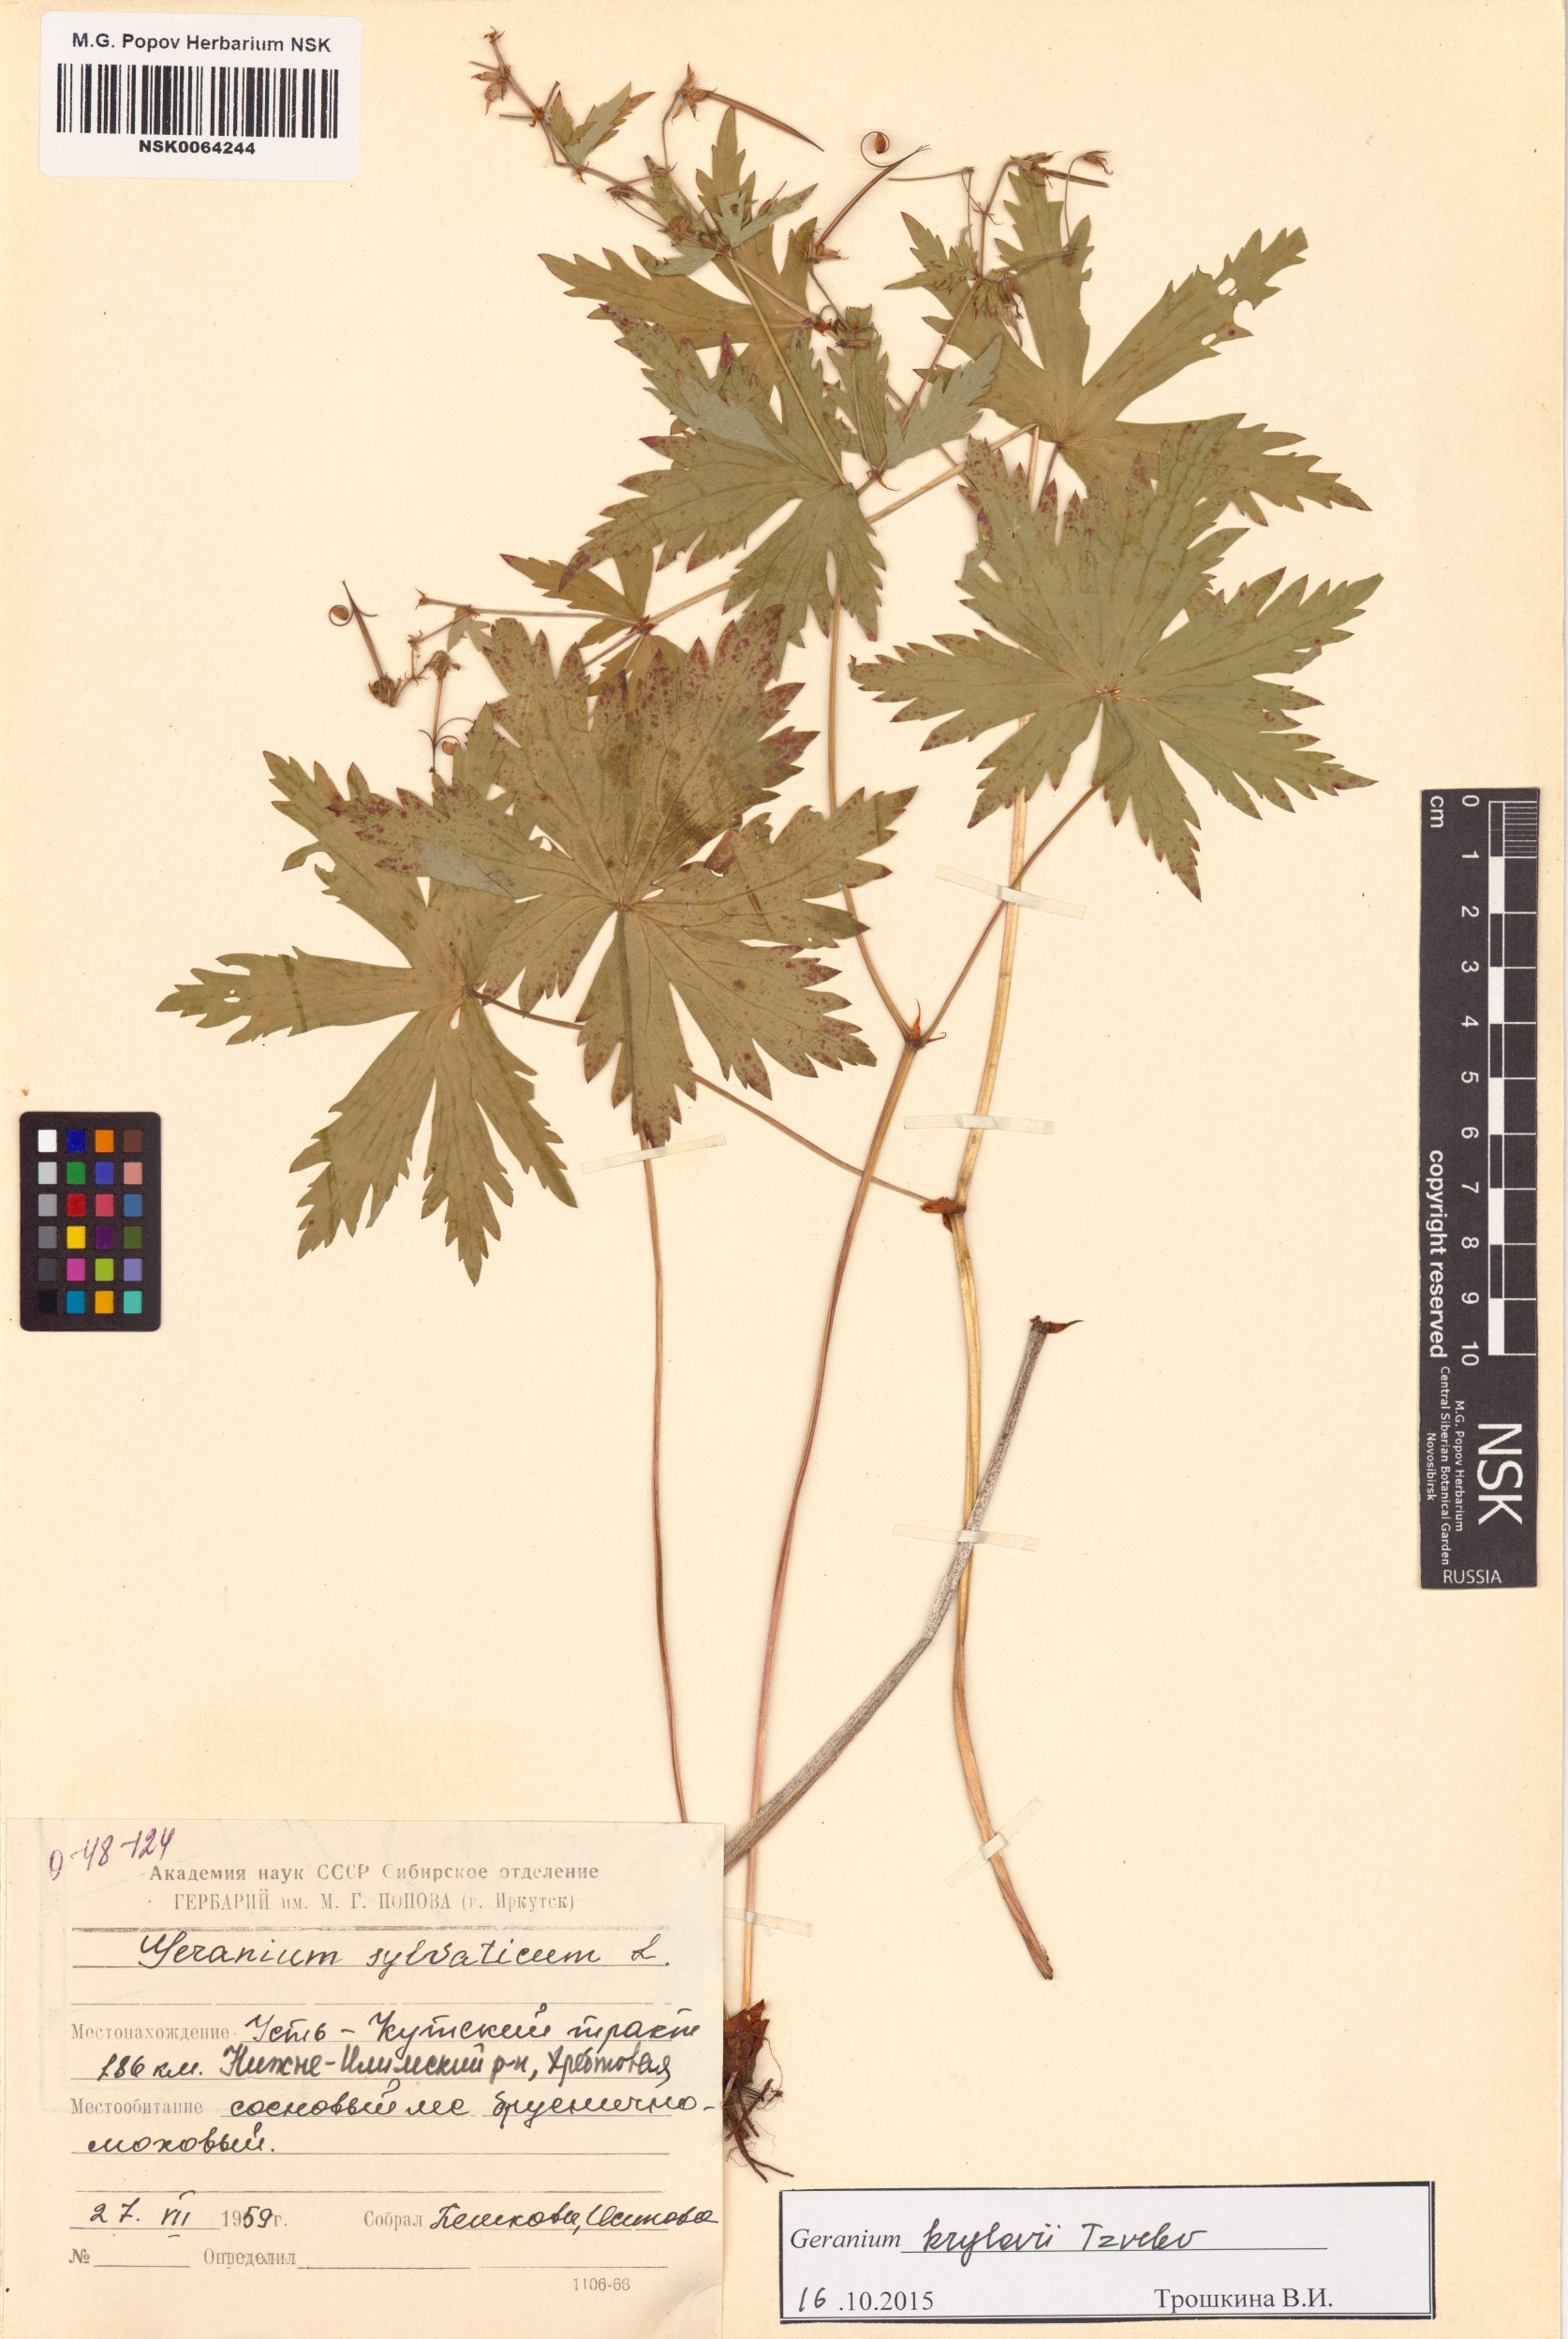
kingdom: Plantae
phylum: Tracheophyta
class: Magnoliopsida
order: Geraniales
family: Geraniaceae
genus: Geranium
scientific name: Geranium sylvaticum
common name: Wood crane's-bill
